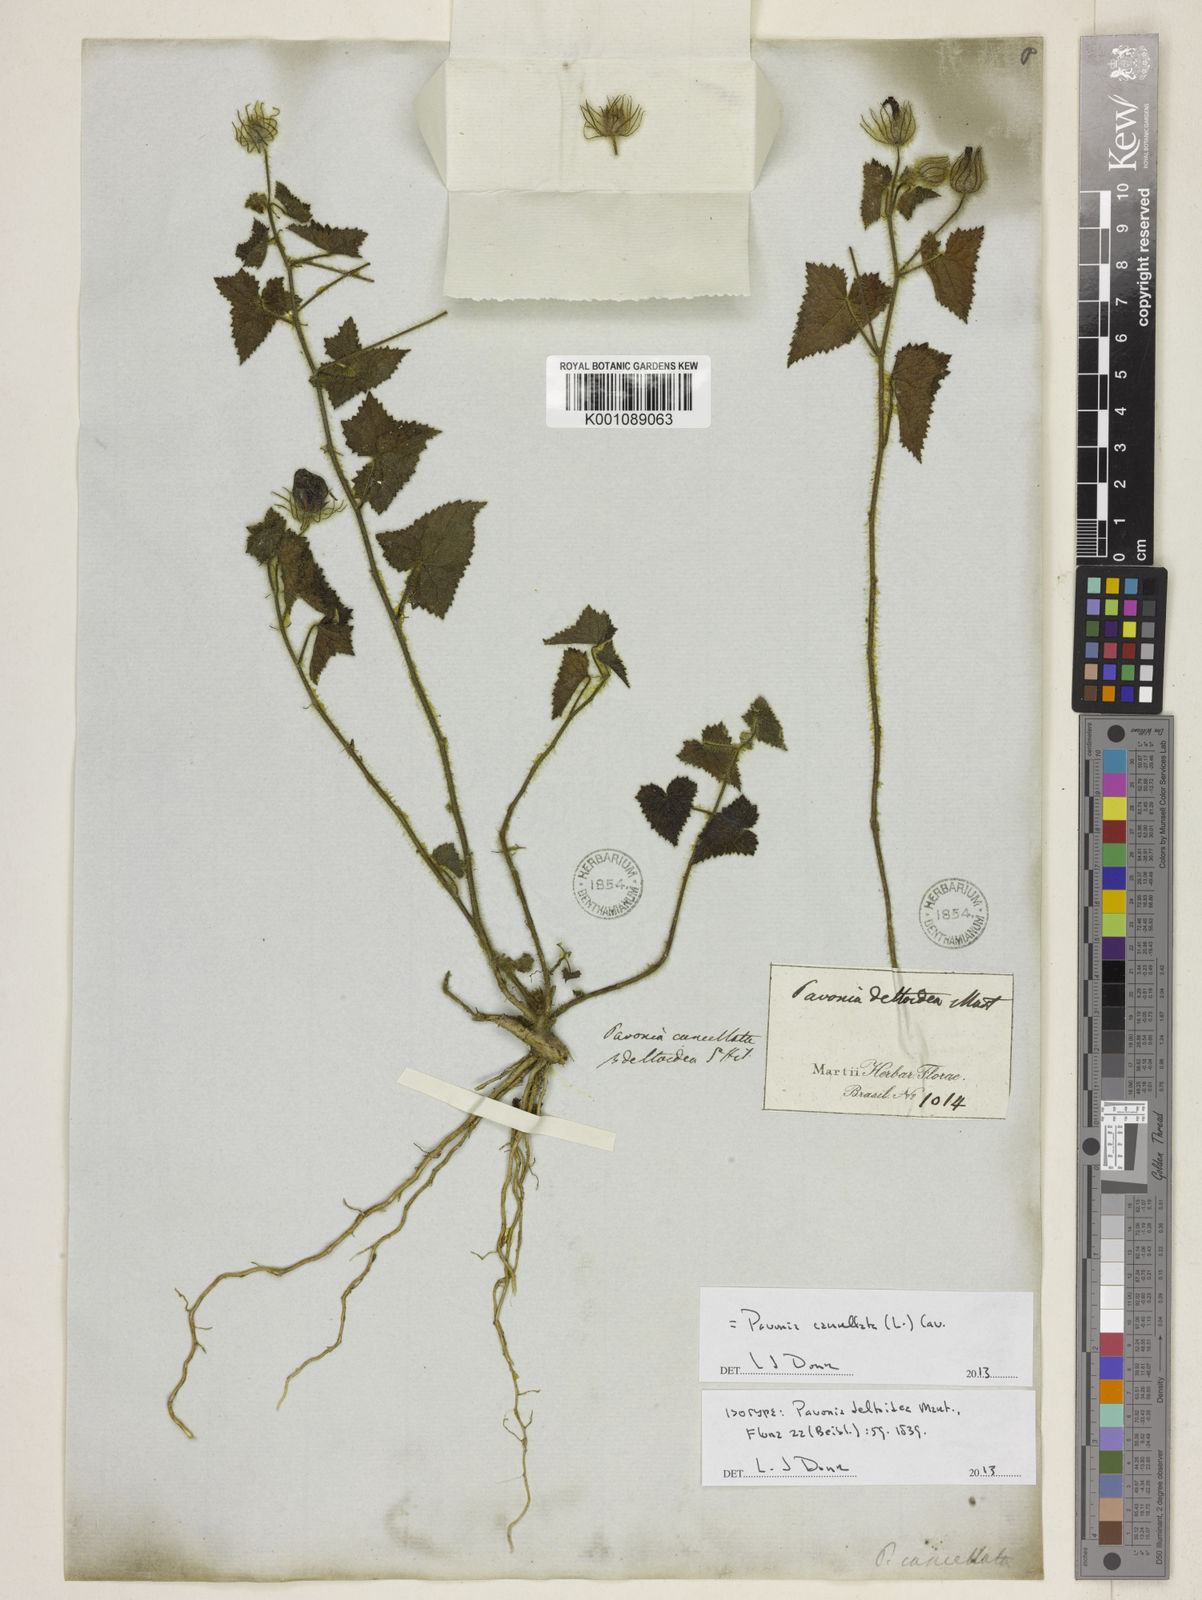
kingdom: Plantae
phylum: Tracheophyta
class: Magnoliopsida
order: Malvales
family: Malvaceae
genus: Pavonia
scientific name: Pavonia cancellata
